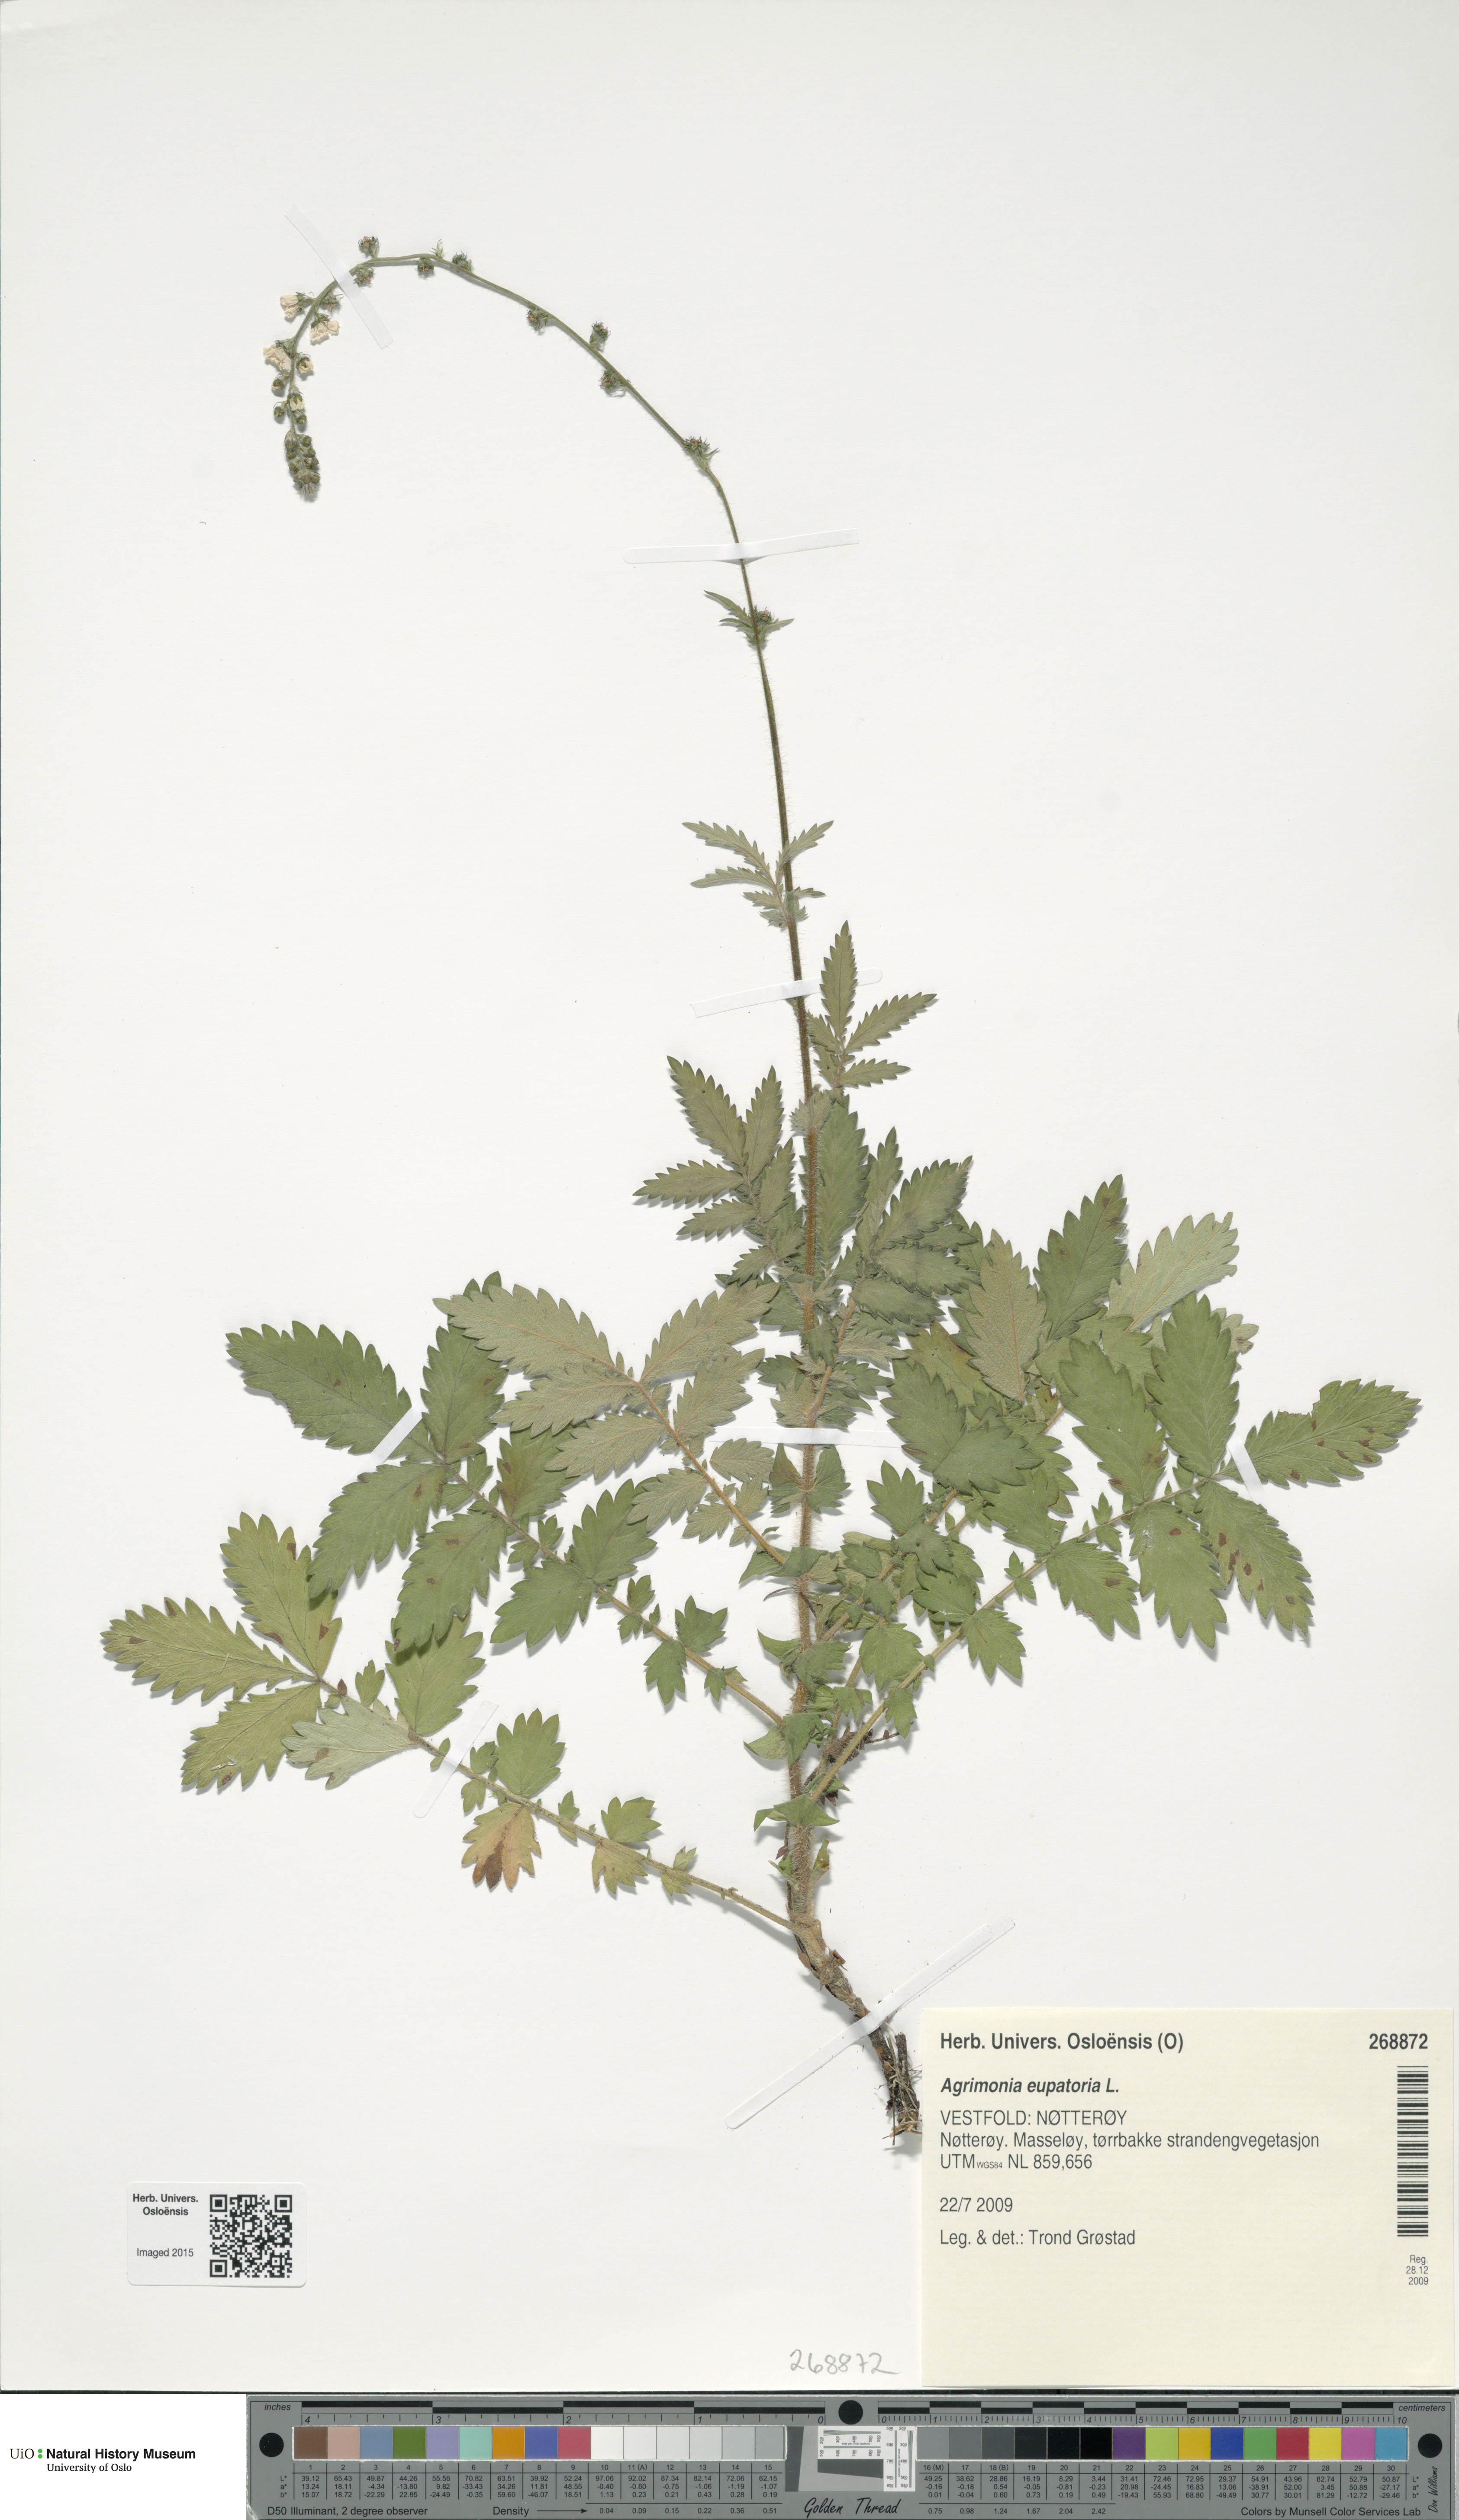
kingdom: Plantae
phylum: Tracheophyta
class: Magnoliopsida
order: Rosales
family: Rosaceae
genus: Agrimonia
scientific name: Agrimonia eupatoria
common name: Agrimony
